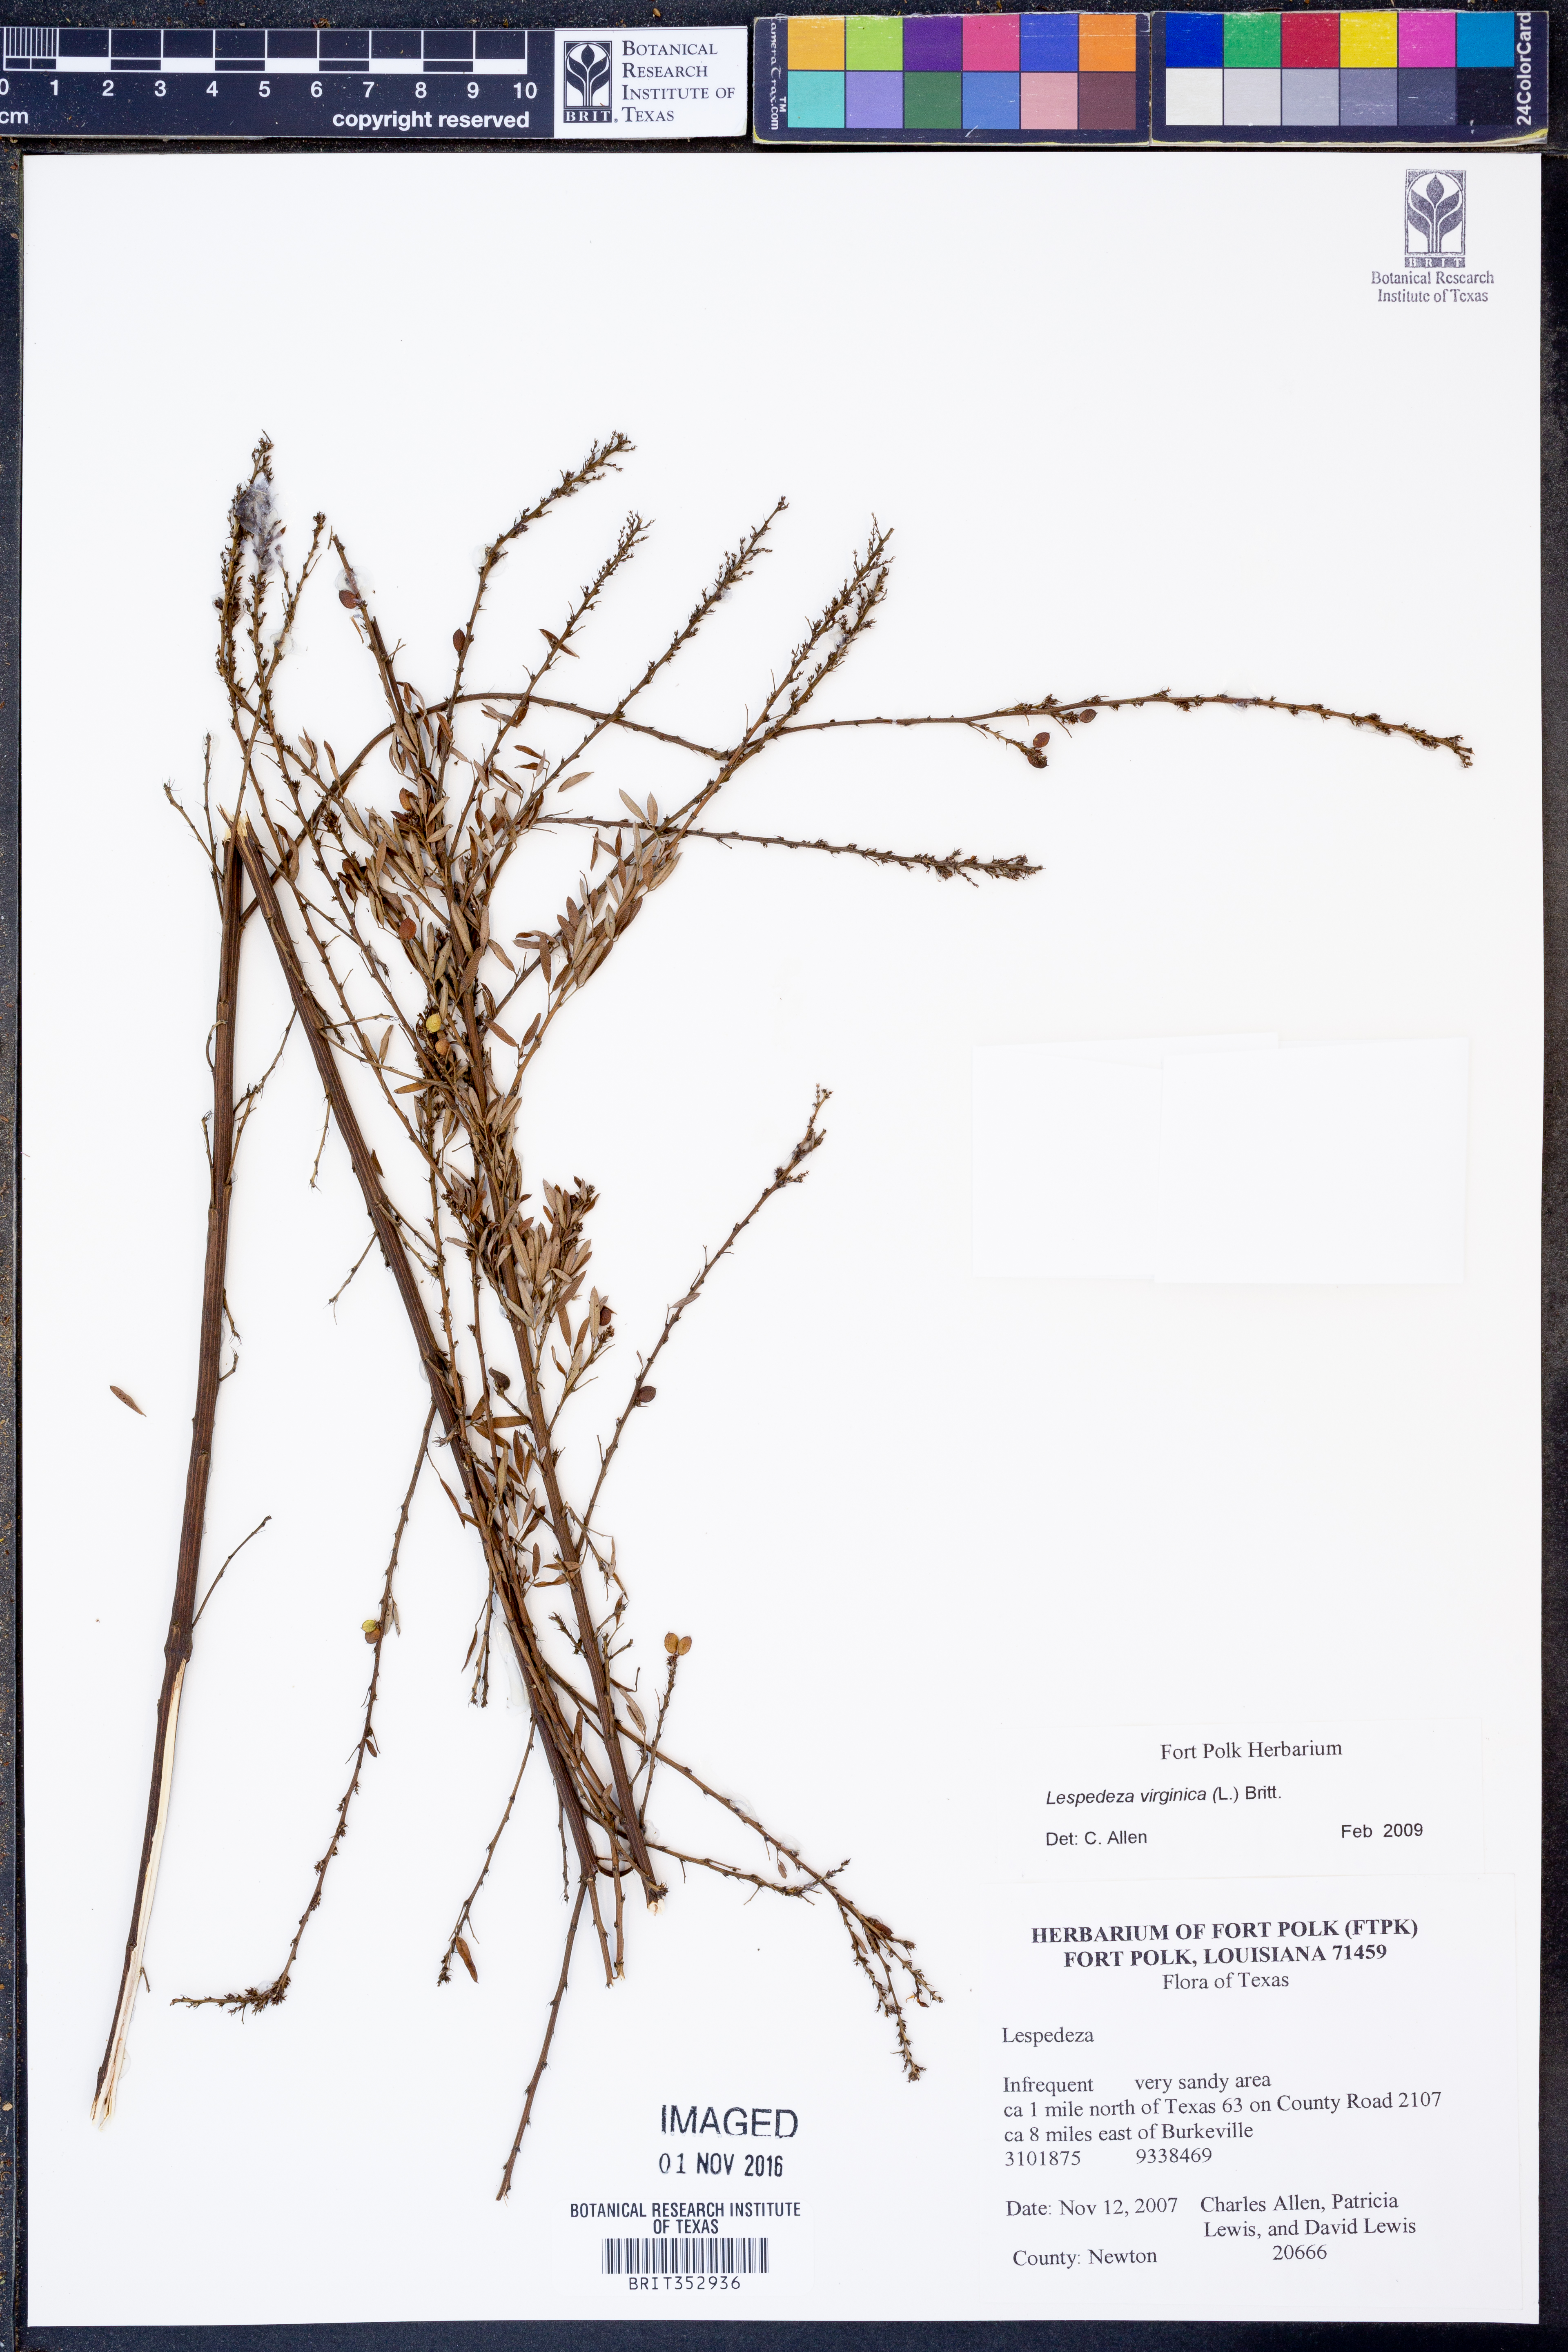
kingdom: Plantae
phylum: Tracheophyta
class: Magnoliopsida
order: Fabales
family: Fabaceae
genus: Lespedeza
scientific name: Lespedeza virginica
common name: Slender bush-clover
